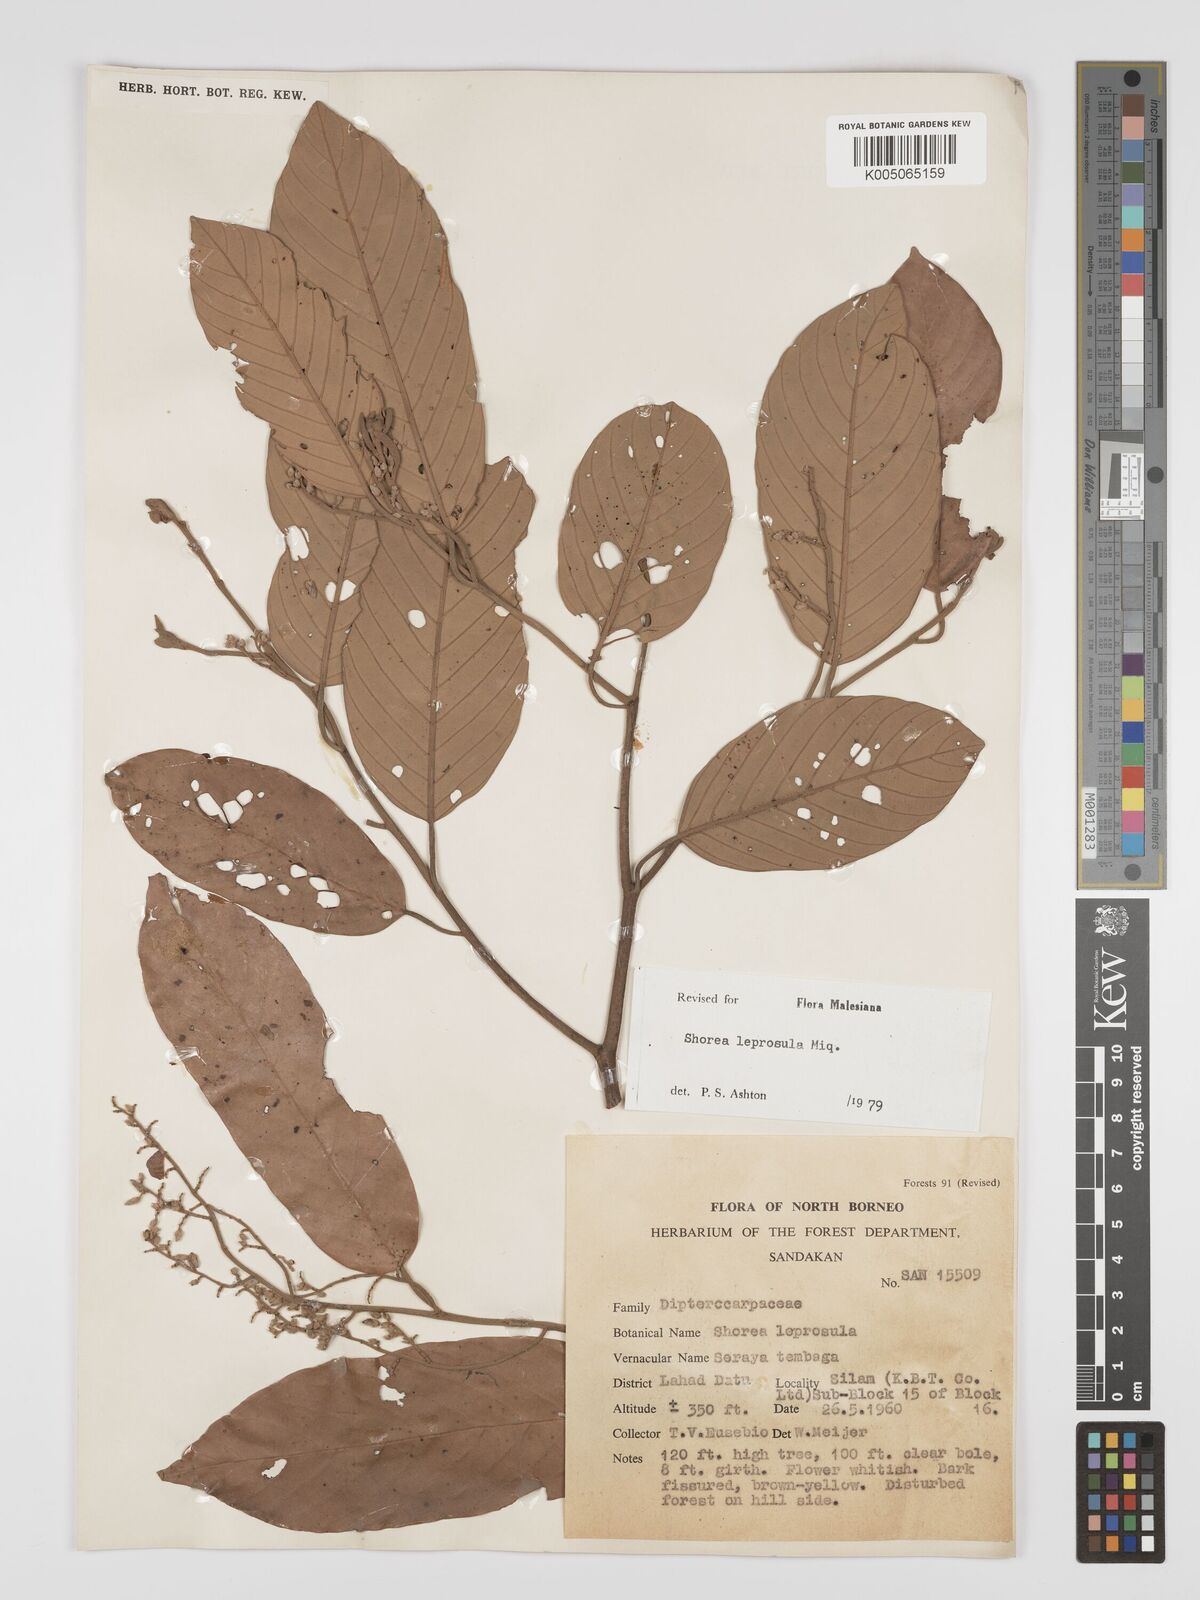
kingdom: Plantae
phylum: Tracheophyta
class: Magnoliopsida
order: Malvales
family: Dipterocarpaceae
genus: Shorea
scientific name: Shorea leprosula
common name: Light red meranti
